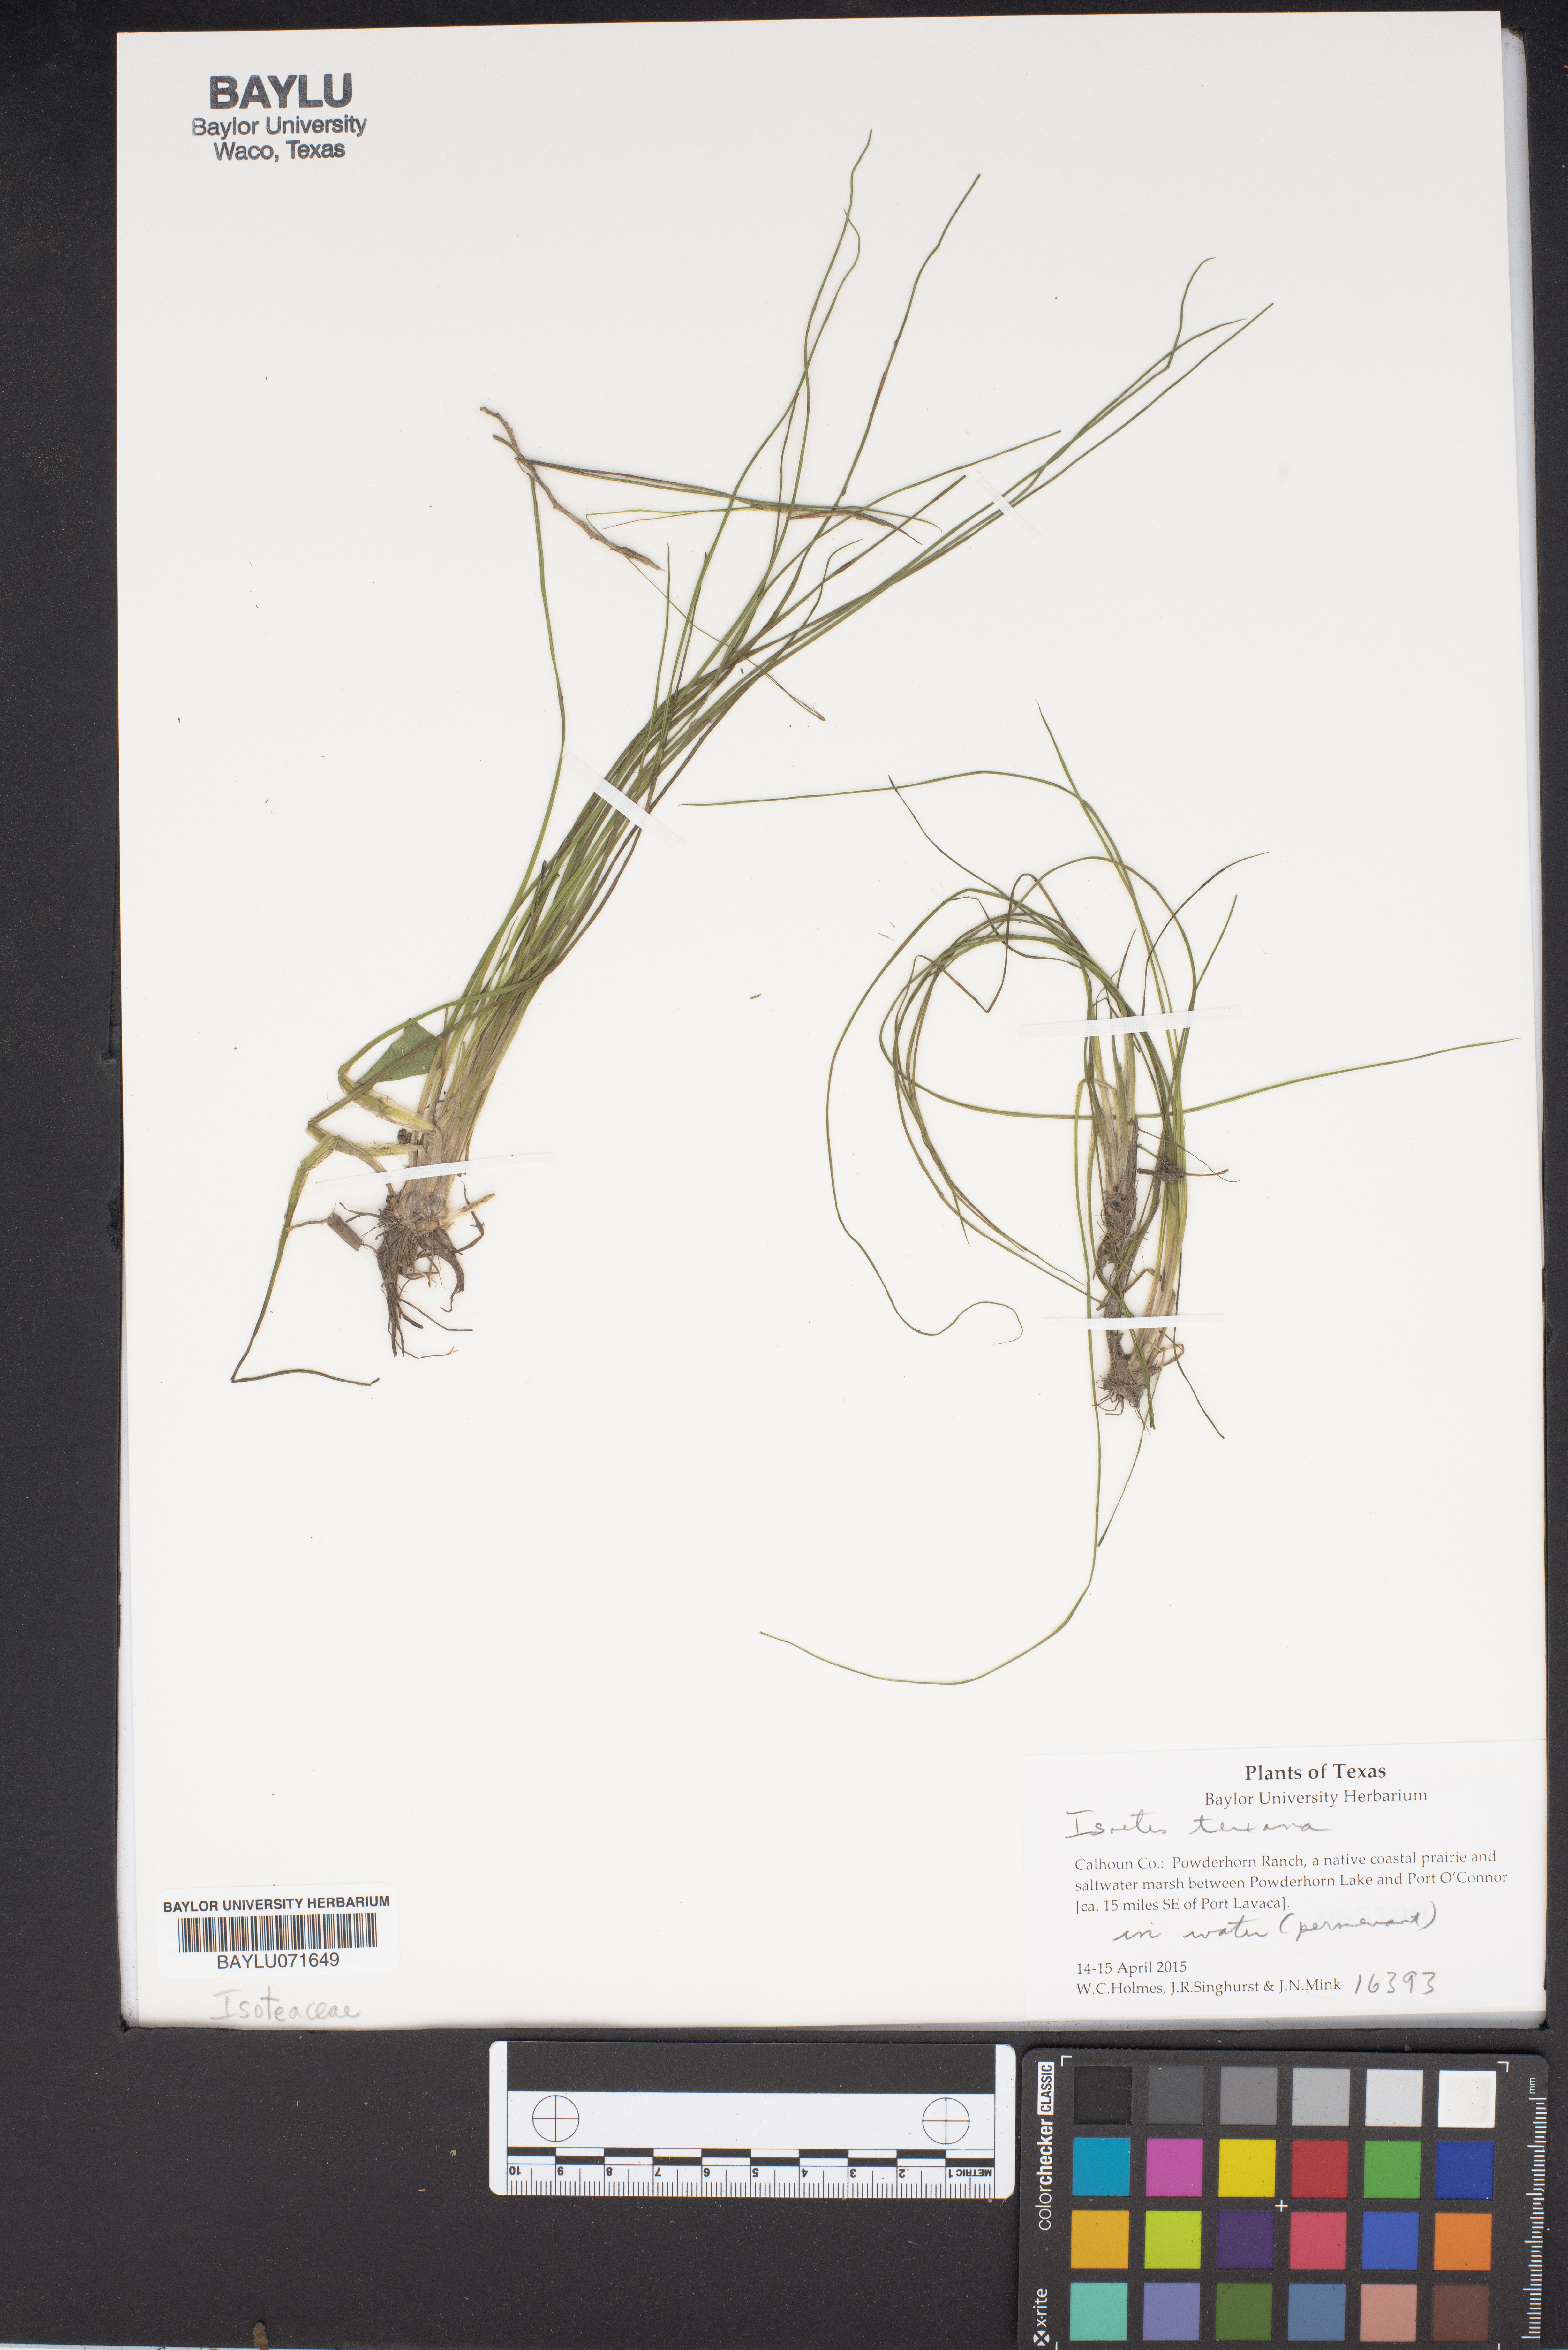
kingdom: Plantae
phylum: Tracheophyta
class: Lycopodiopsida
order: Isoetales
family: Isoetaceae
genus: Isoetes
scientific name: Isoetes texana
